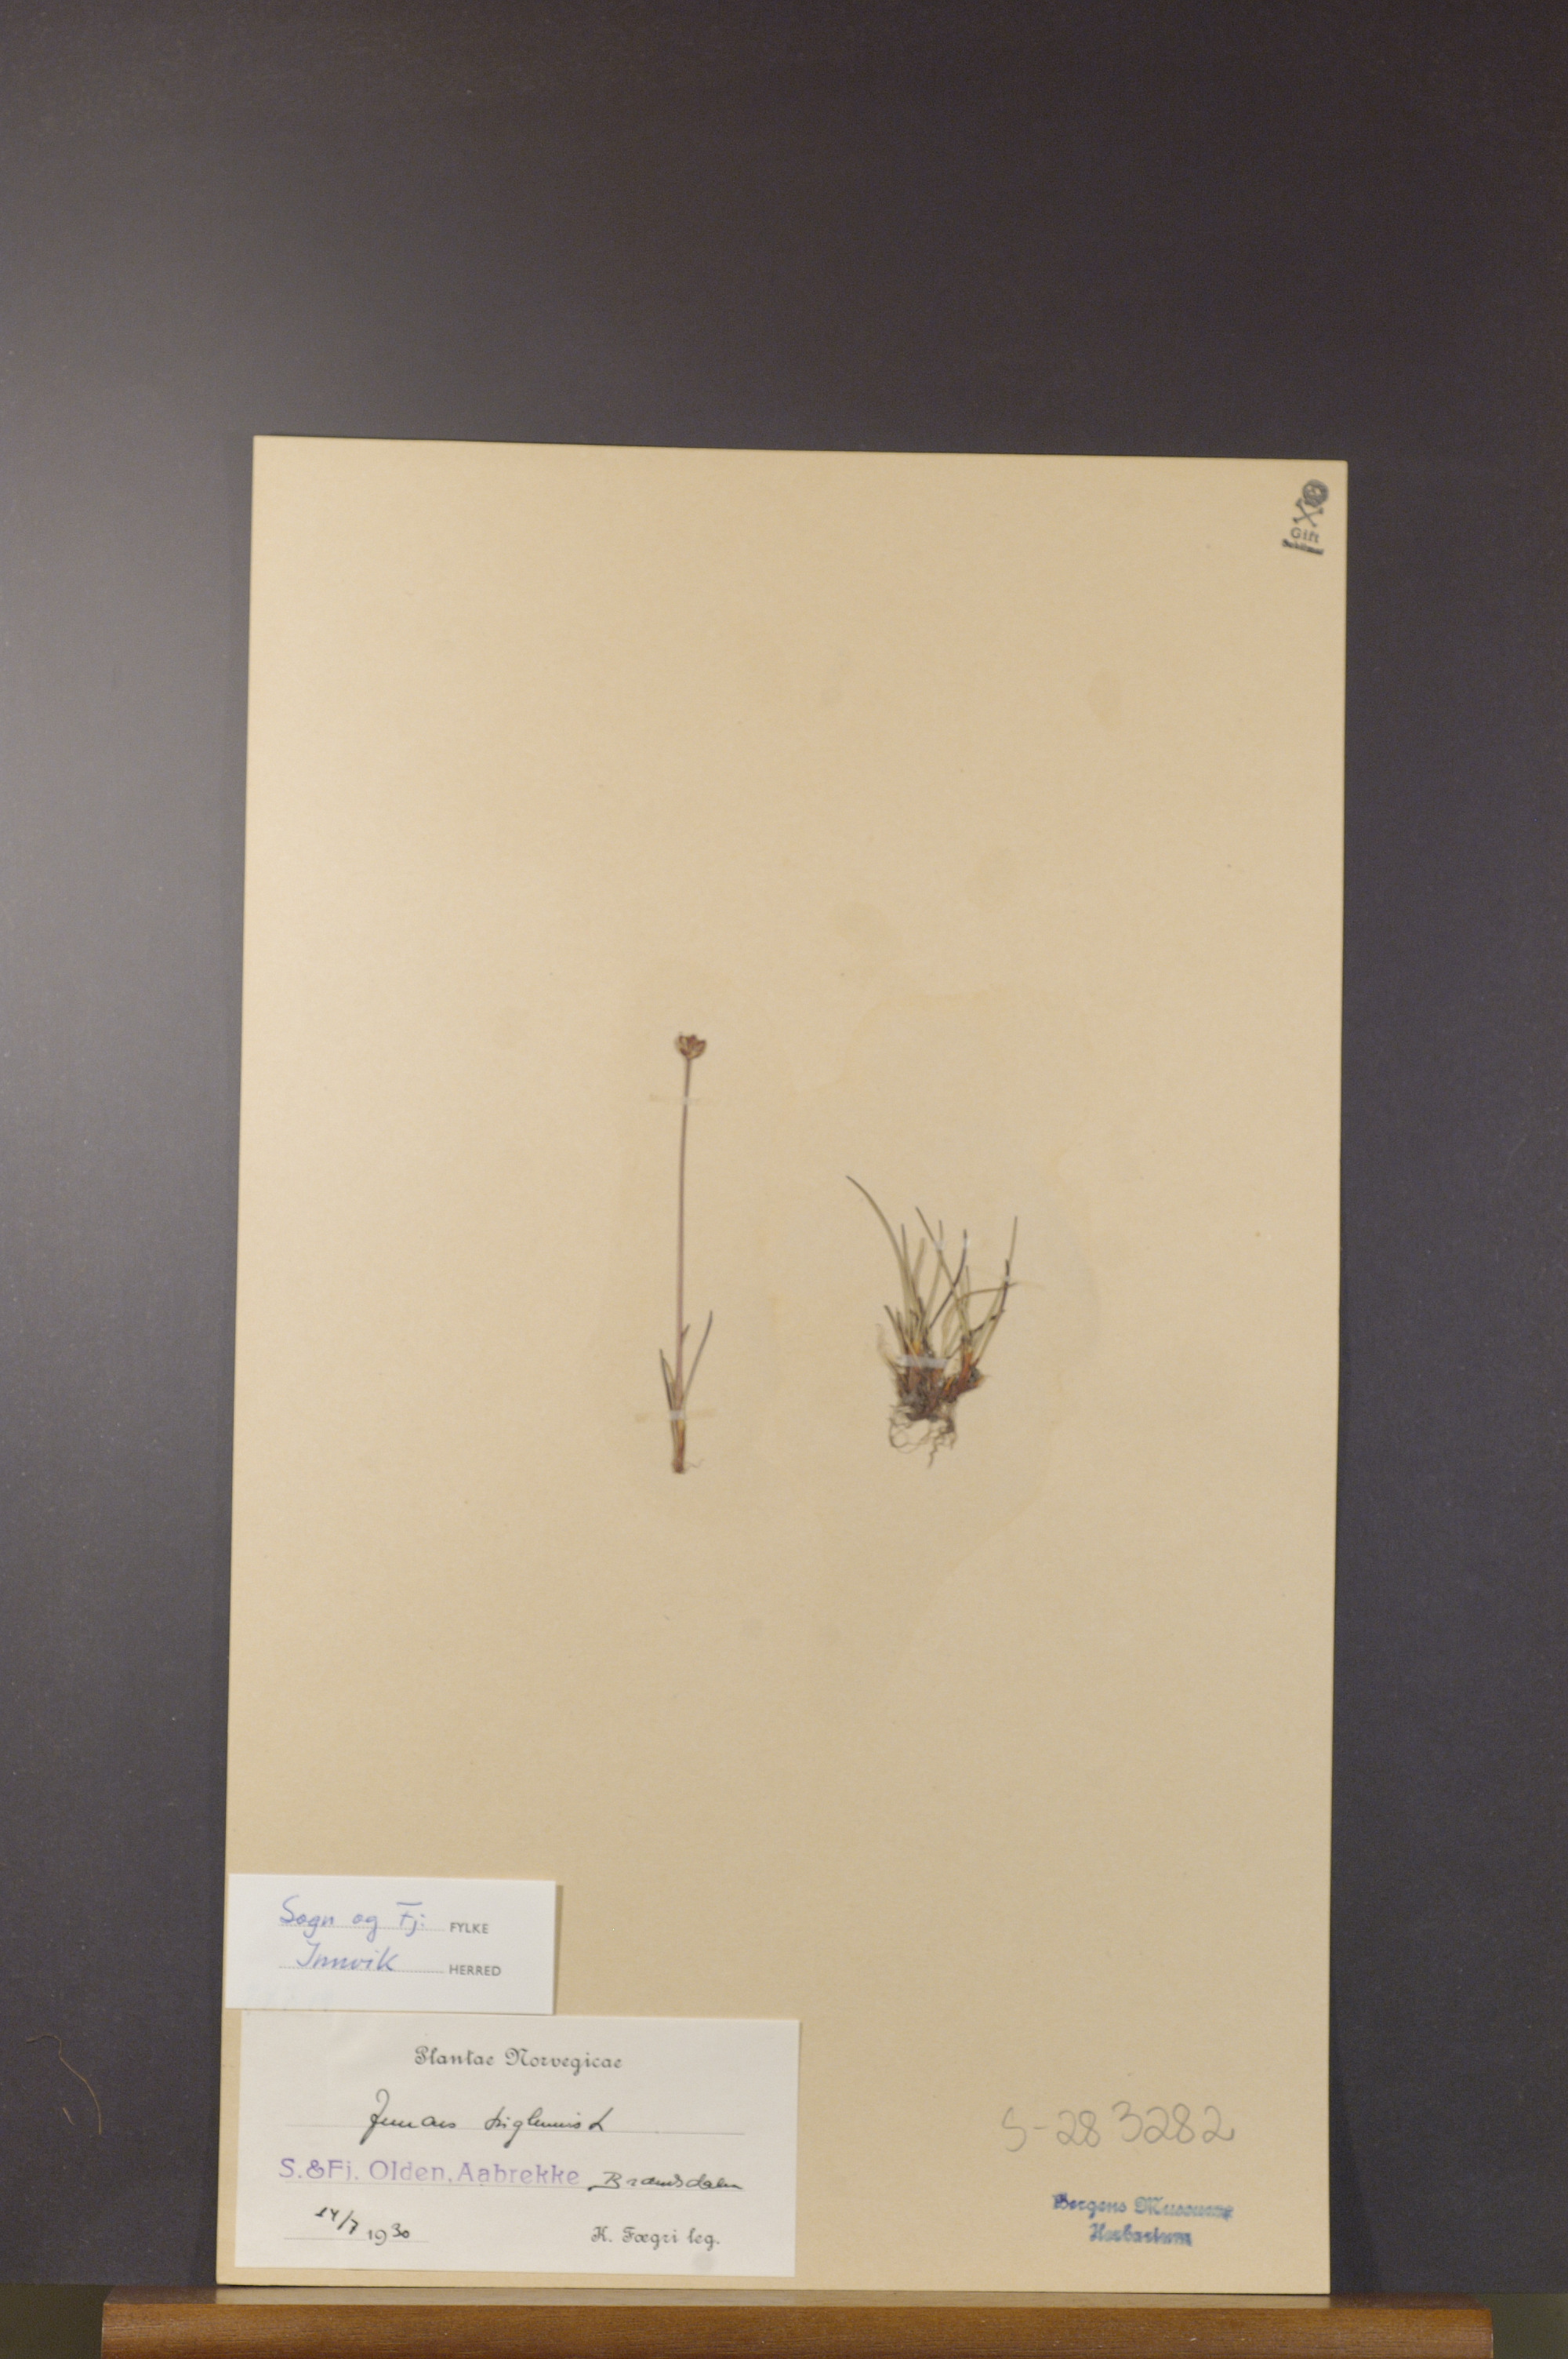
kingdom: Plantae
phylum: Tracheophyta
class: Liliopsida
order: Poales
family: Juncaceae
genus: Juncus
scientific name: Juncus triglumis
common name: Three-flowered rush
